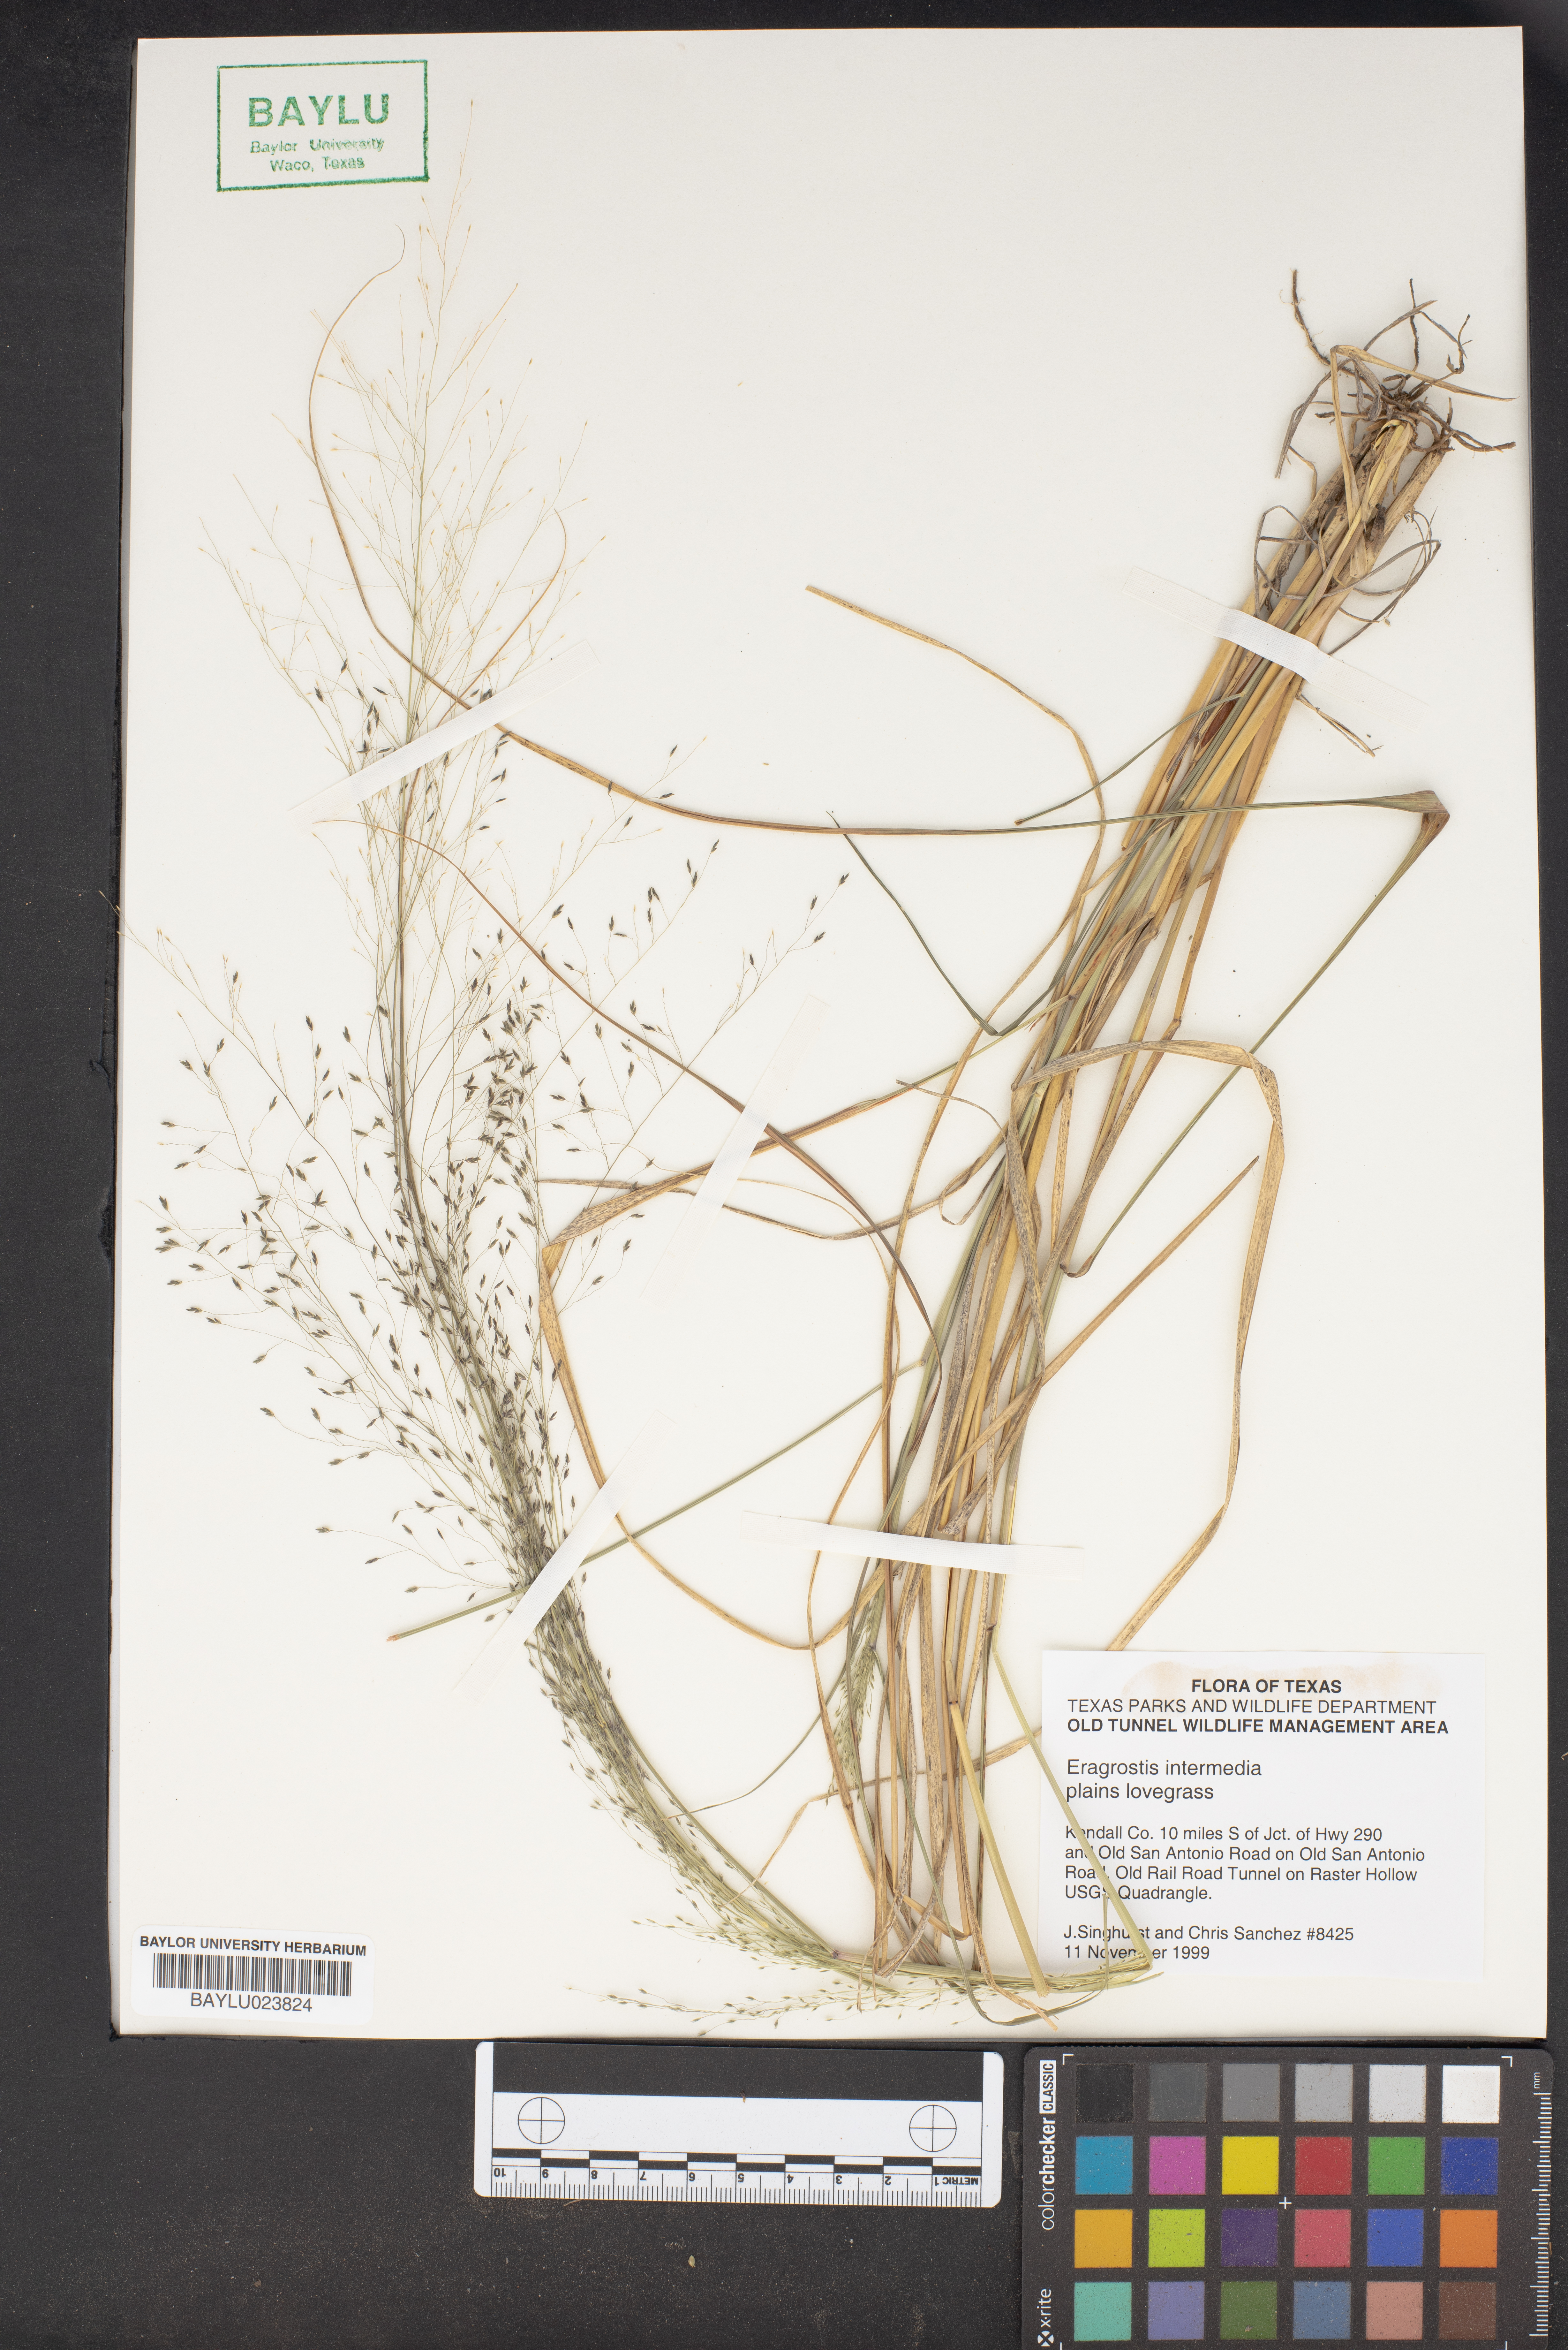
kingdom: Plantae
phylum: Tracheophyta
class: Liliopsida
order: Poales
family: Poaceae
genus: Eragrostis
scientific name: Eragrostis intermedia
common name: Plains love grass
